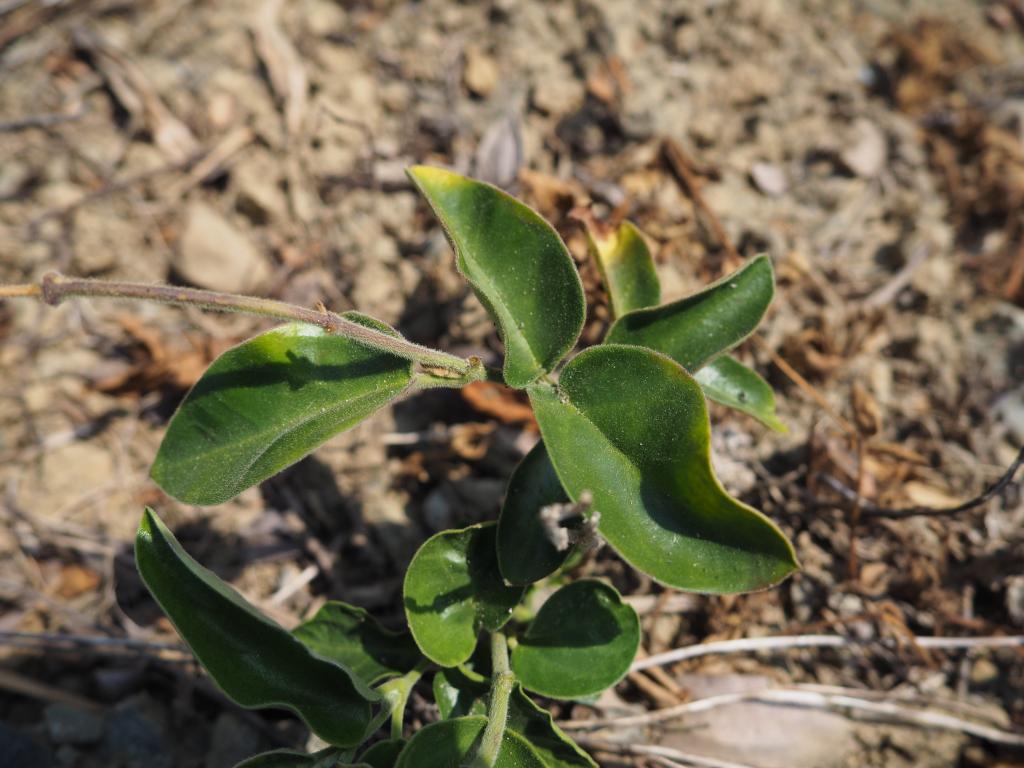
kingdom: Plantae
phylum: Tracheophyta
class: Magnoliopsida
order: Gentianales
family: Apocynaceae
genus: Vincetoxicum
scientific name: Vincetoxicum hirsutum
